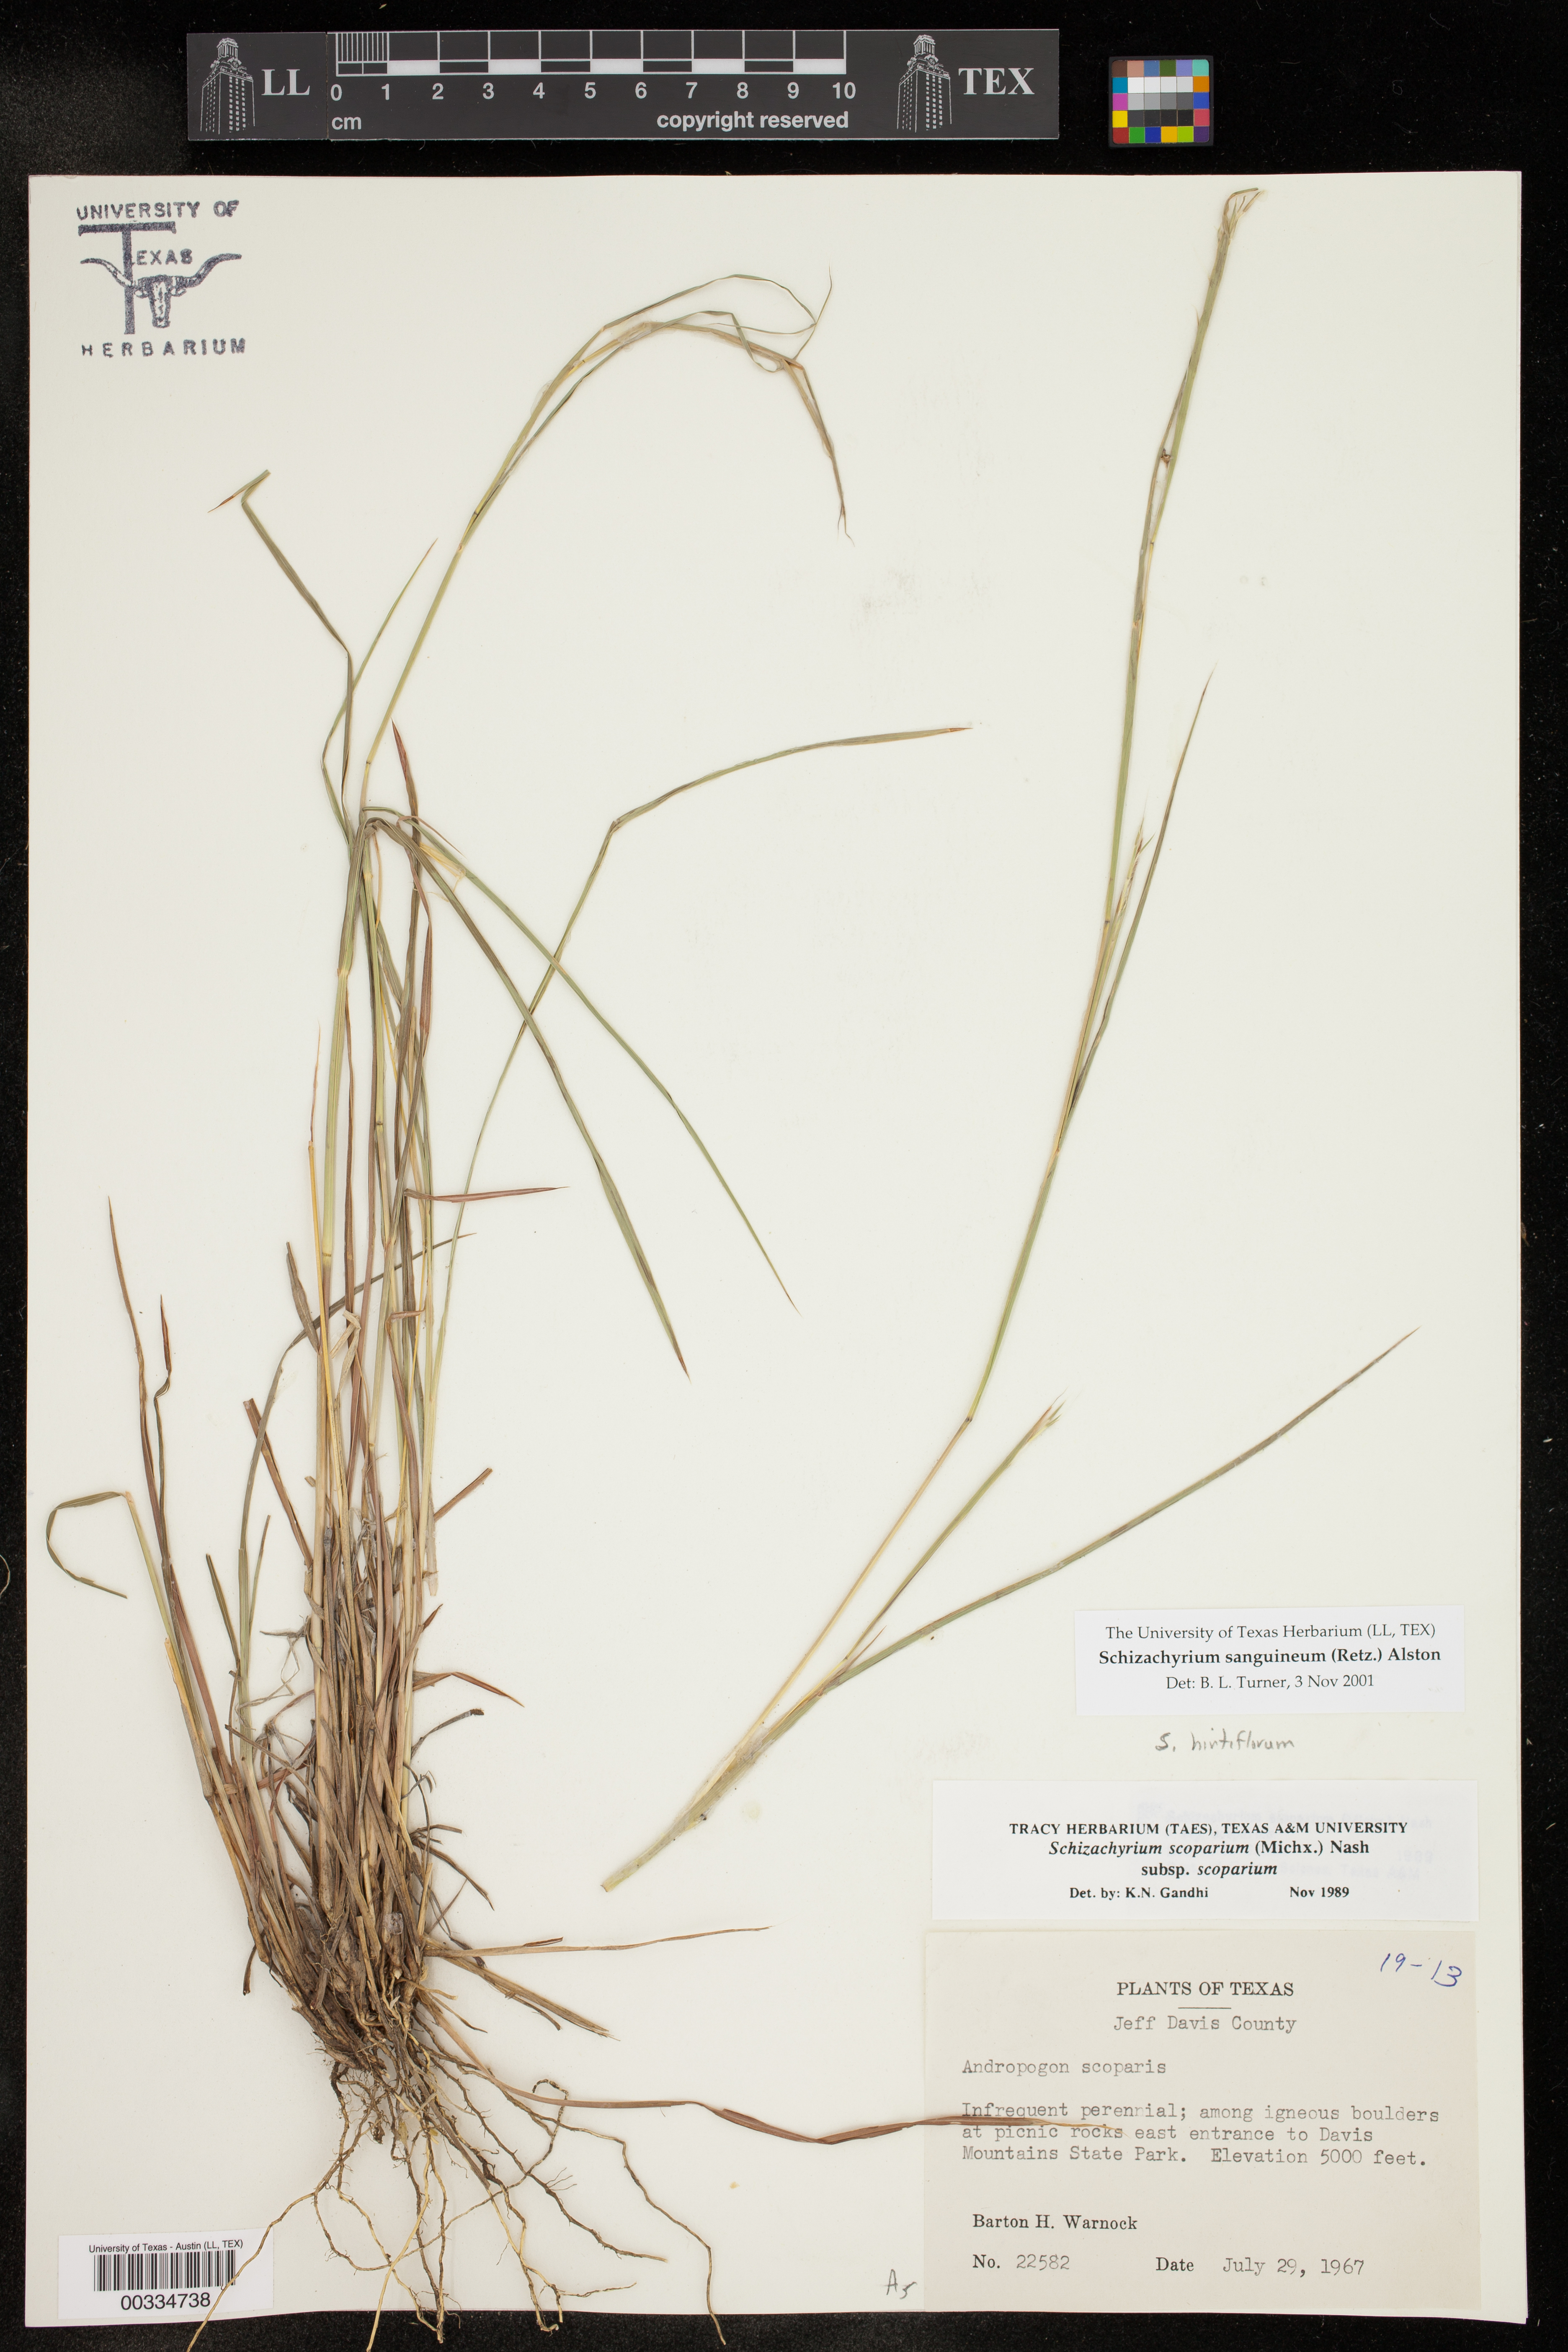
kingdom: Plantae
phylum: Tracheophyta
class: Liliopsida
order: Poales
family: Poaceae
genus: Schizachyrium
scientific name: Schizachyrium sanguineum
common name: Crimson bluestem
